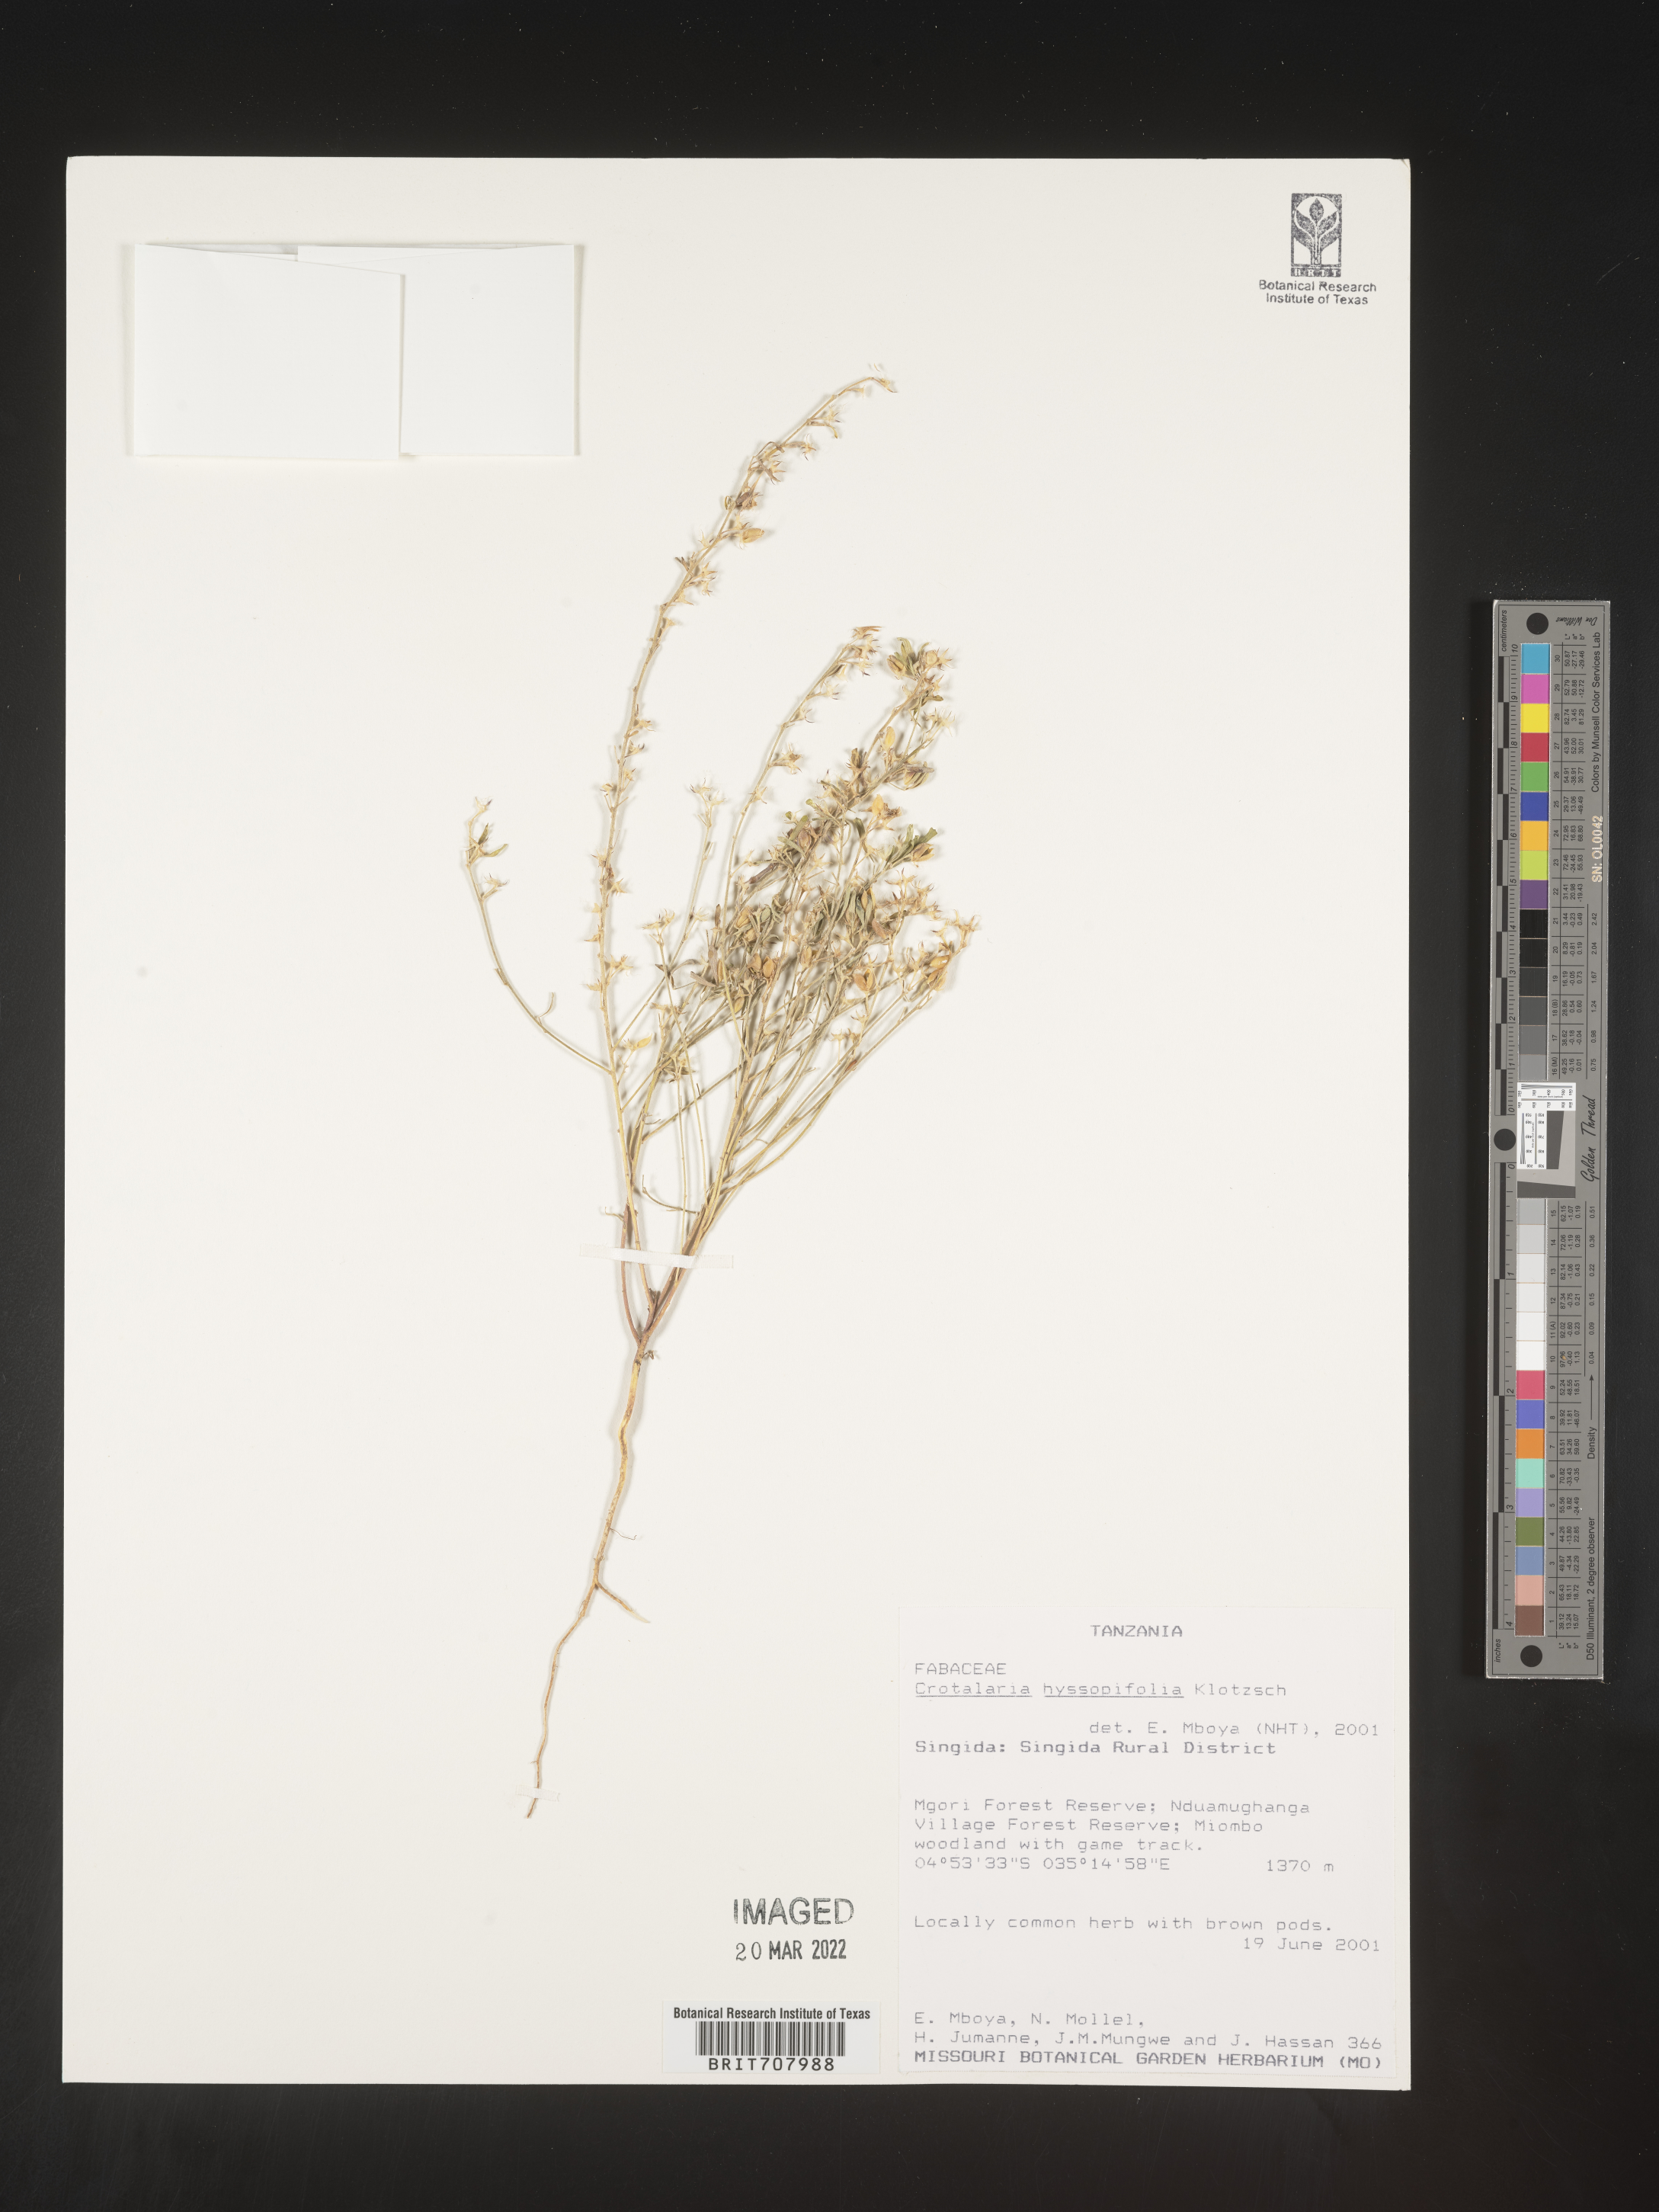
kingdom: Plantae
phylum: Tracheophyta
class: Magnoliopsida
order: Fabales
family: Fabaceae
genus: Crotalaria
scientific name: Crotalaria
